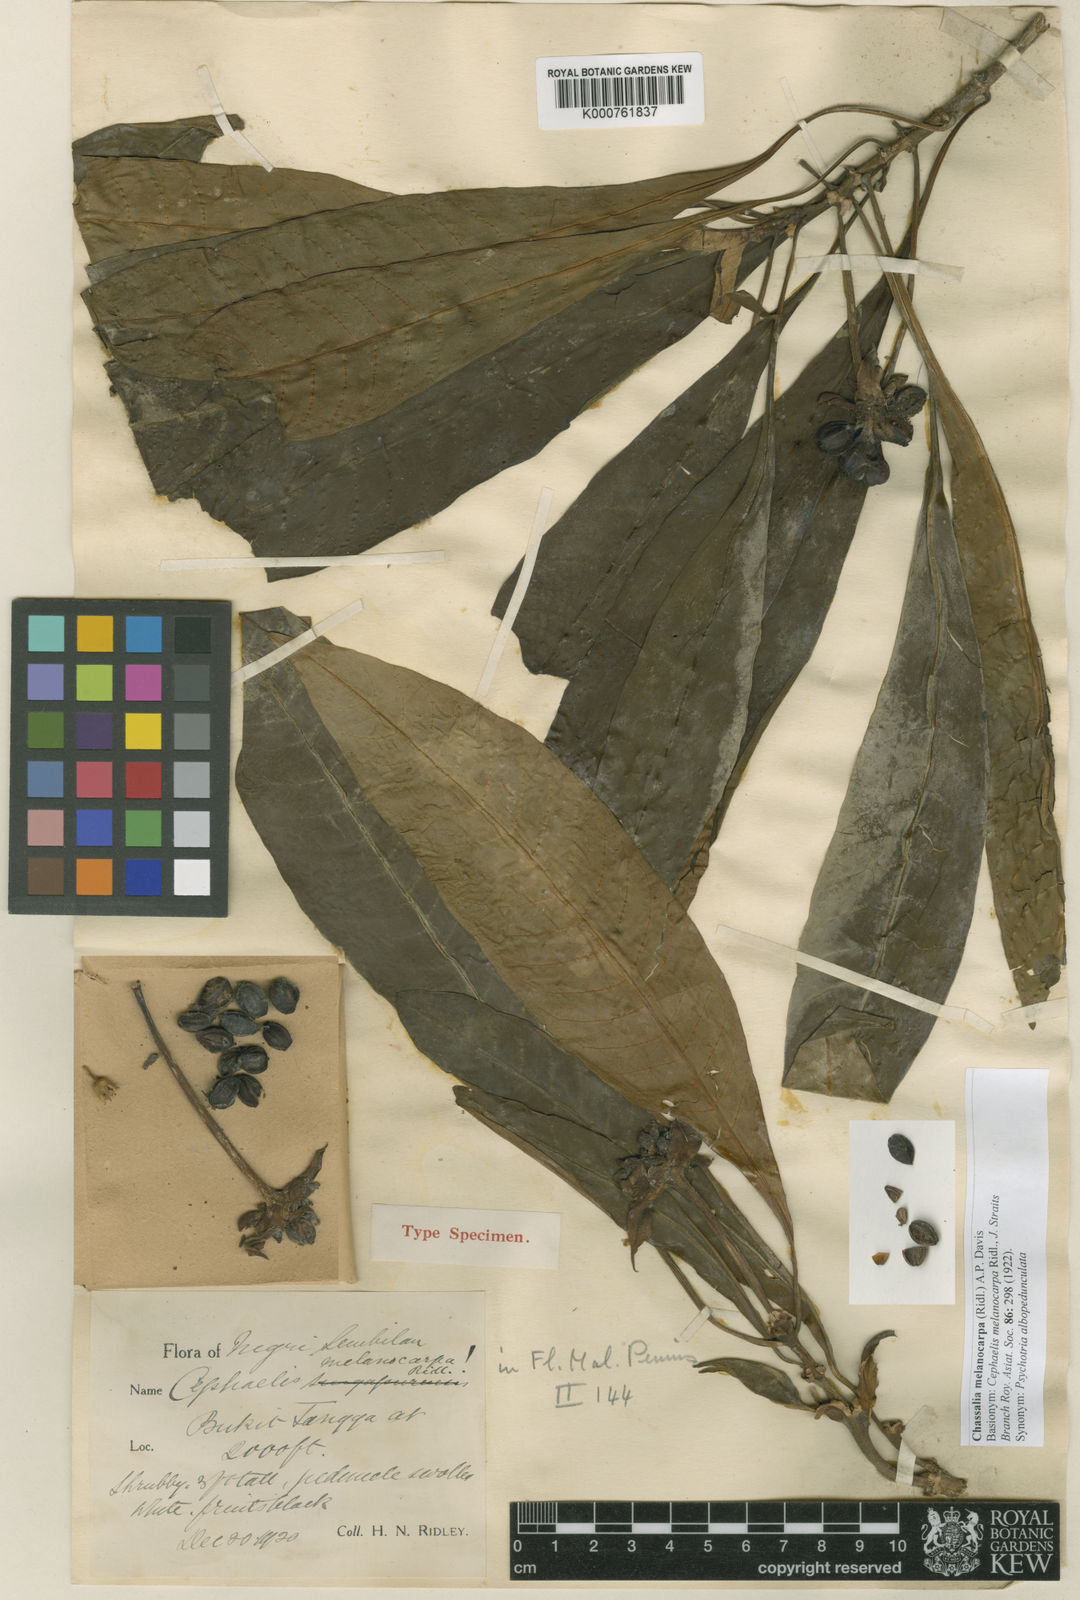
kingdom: Plantae
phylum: Tracheophyta
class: Magnoliopsida
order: Gentianales
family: Rubiaceae
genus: Chassalia
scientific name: Chassalia melanocarpa
